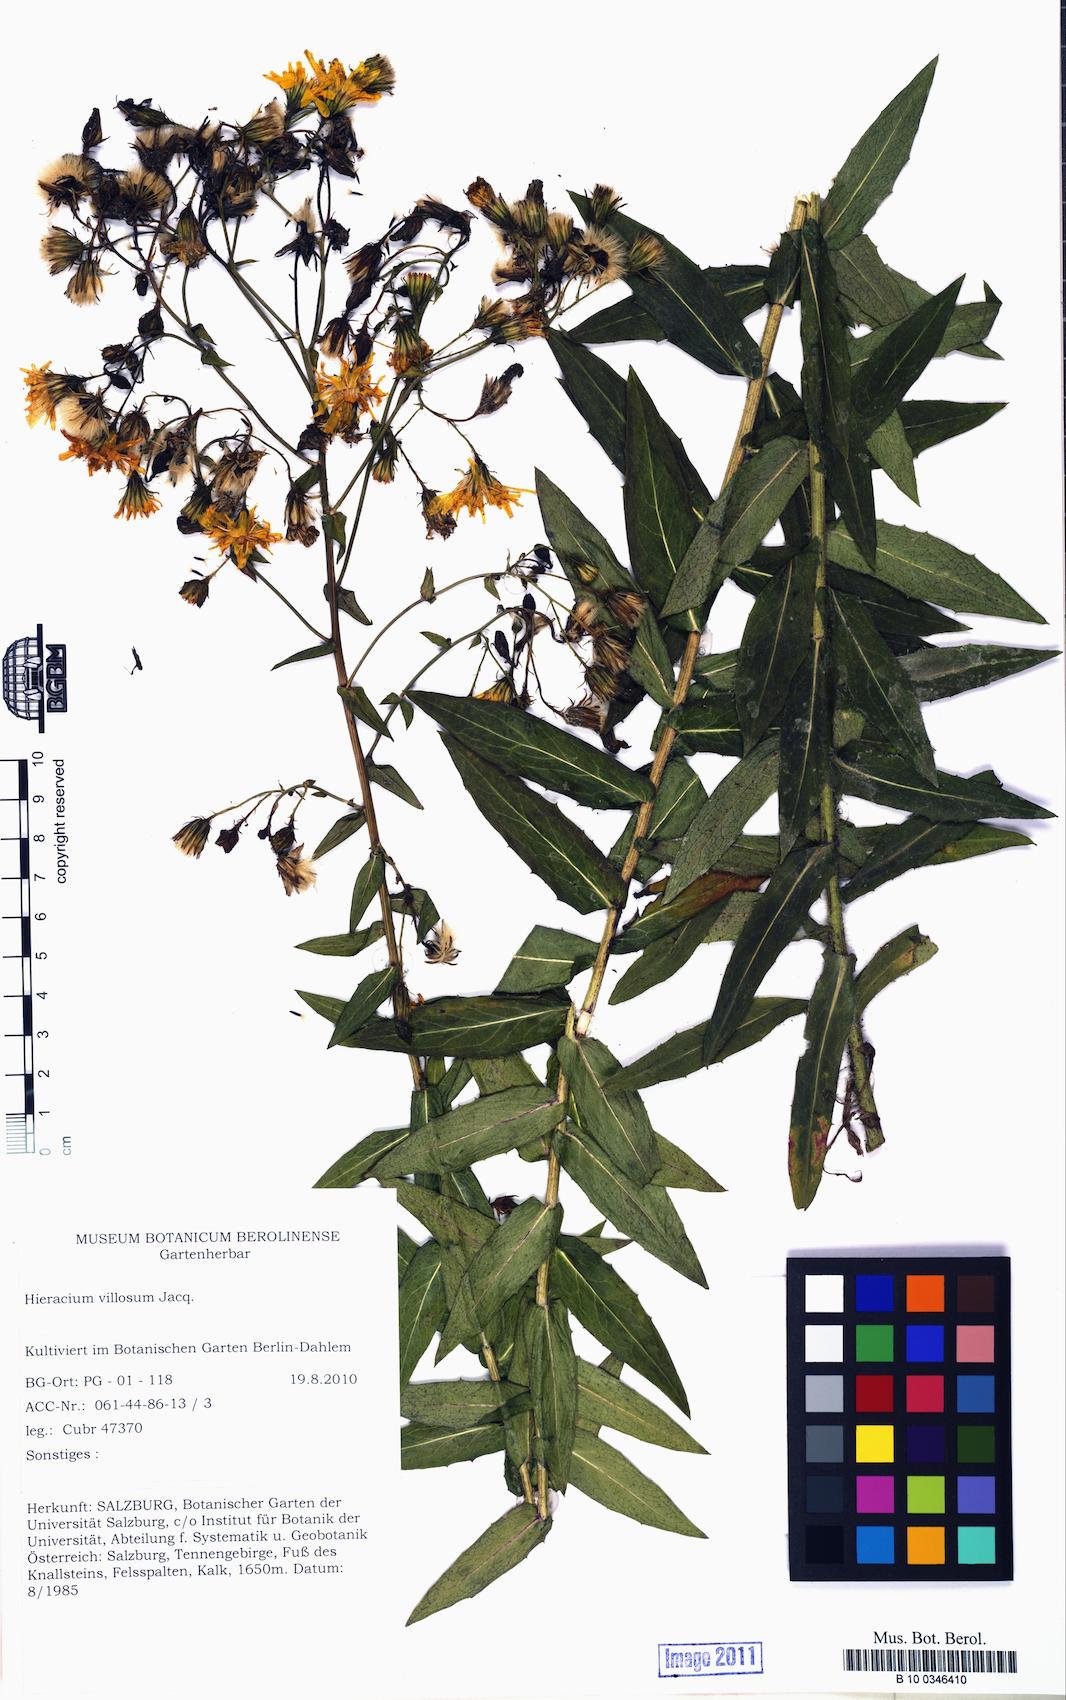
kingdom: Plantae
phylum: Tracheophyta
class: Magnoliopsida
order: Asterales
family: Asteraceae
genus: Hieracium
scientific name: Hieracium villosum
